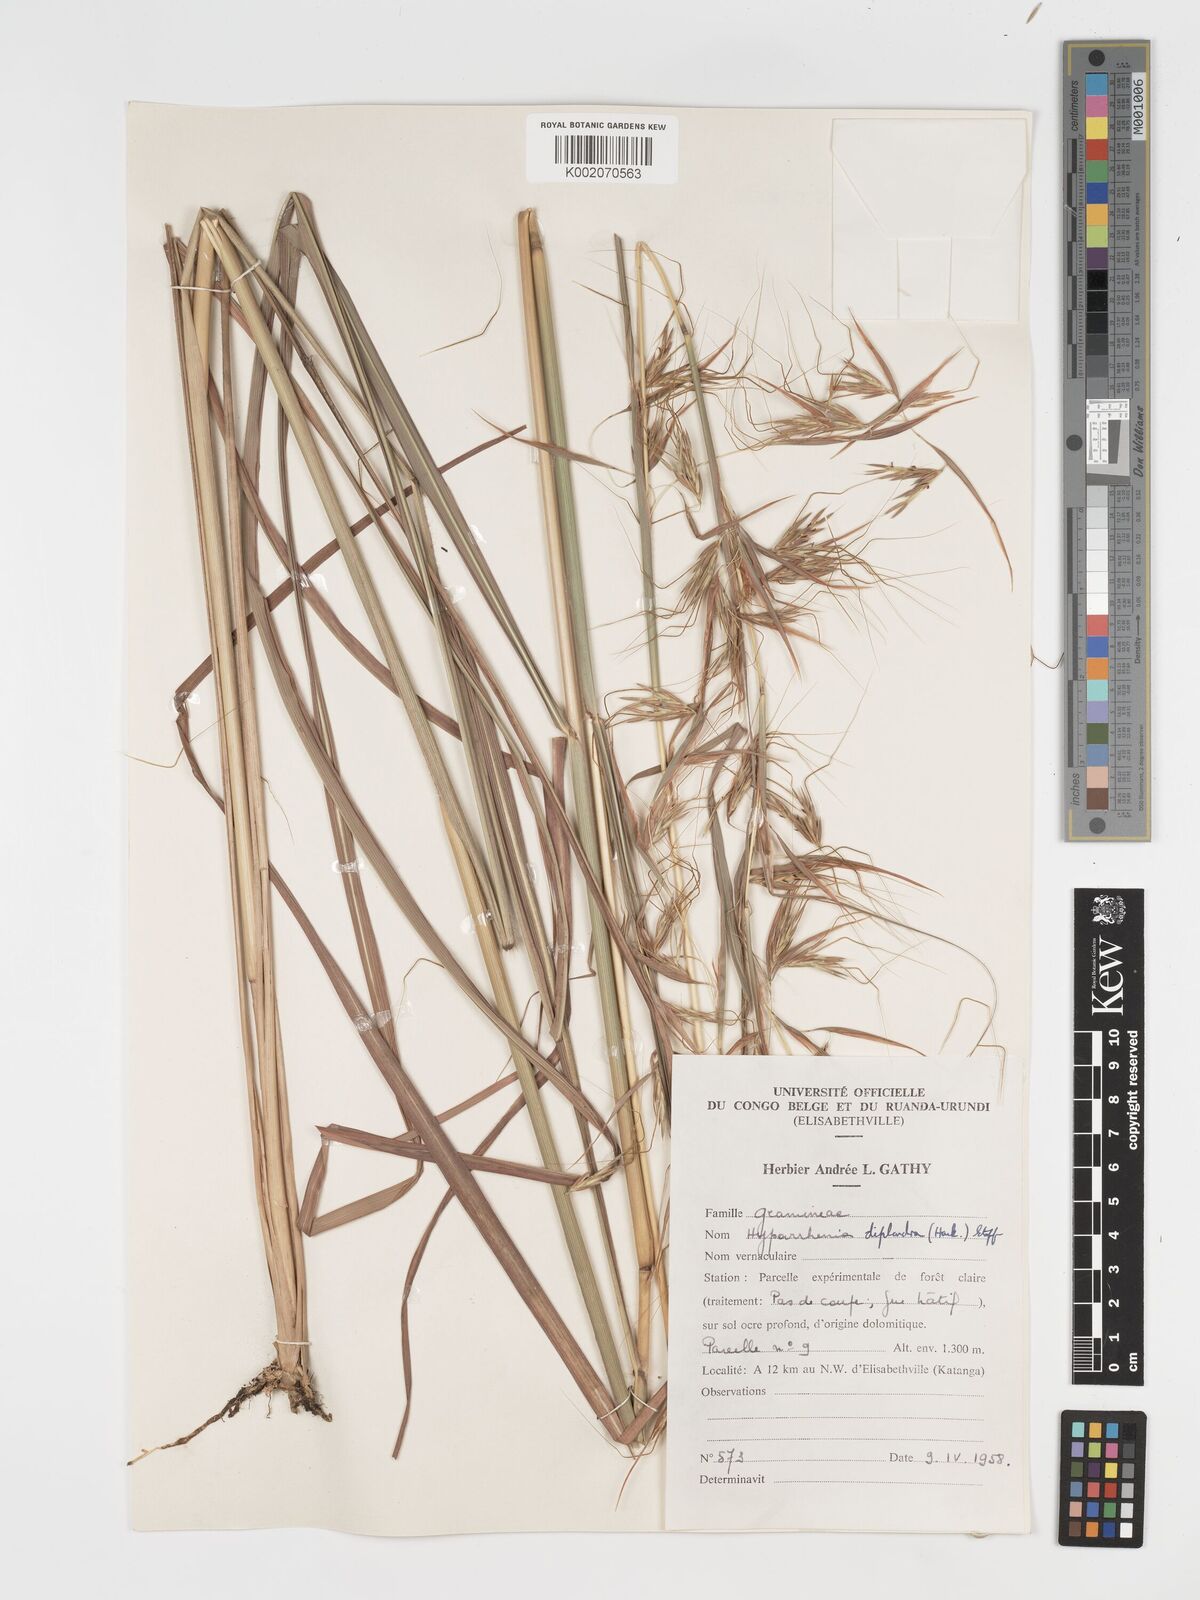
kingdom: Plantae
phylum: Tracheophyta
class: Liliopsida
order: Poales
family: Poaceae
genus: Hyparrhenia
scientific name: Hyparrhenia diplandra
